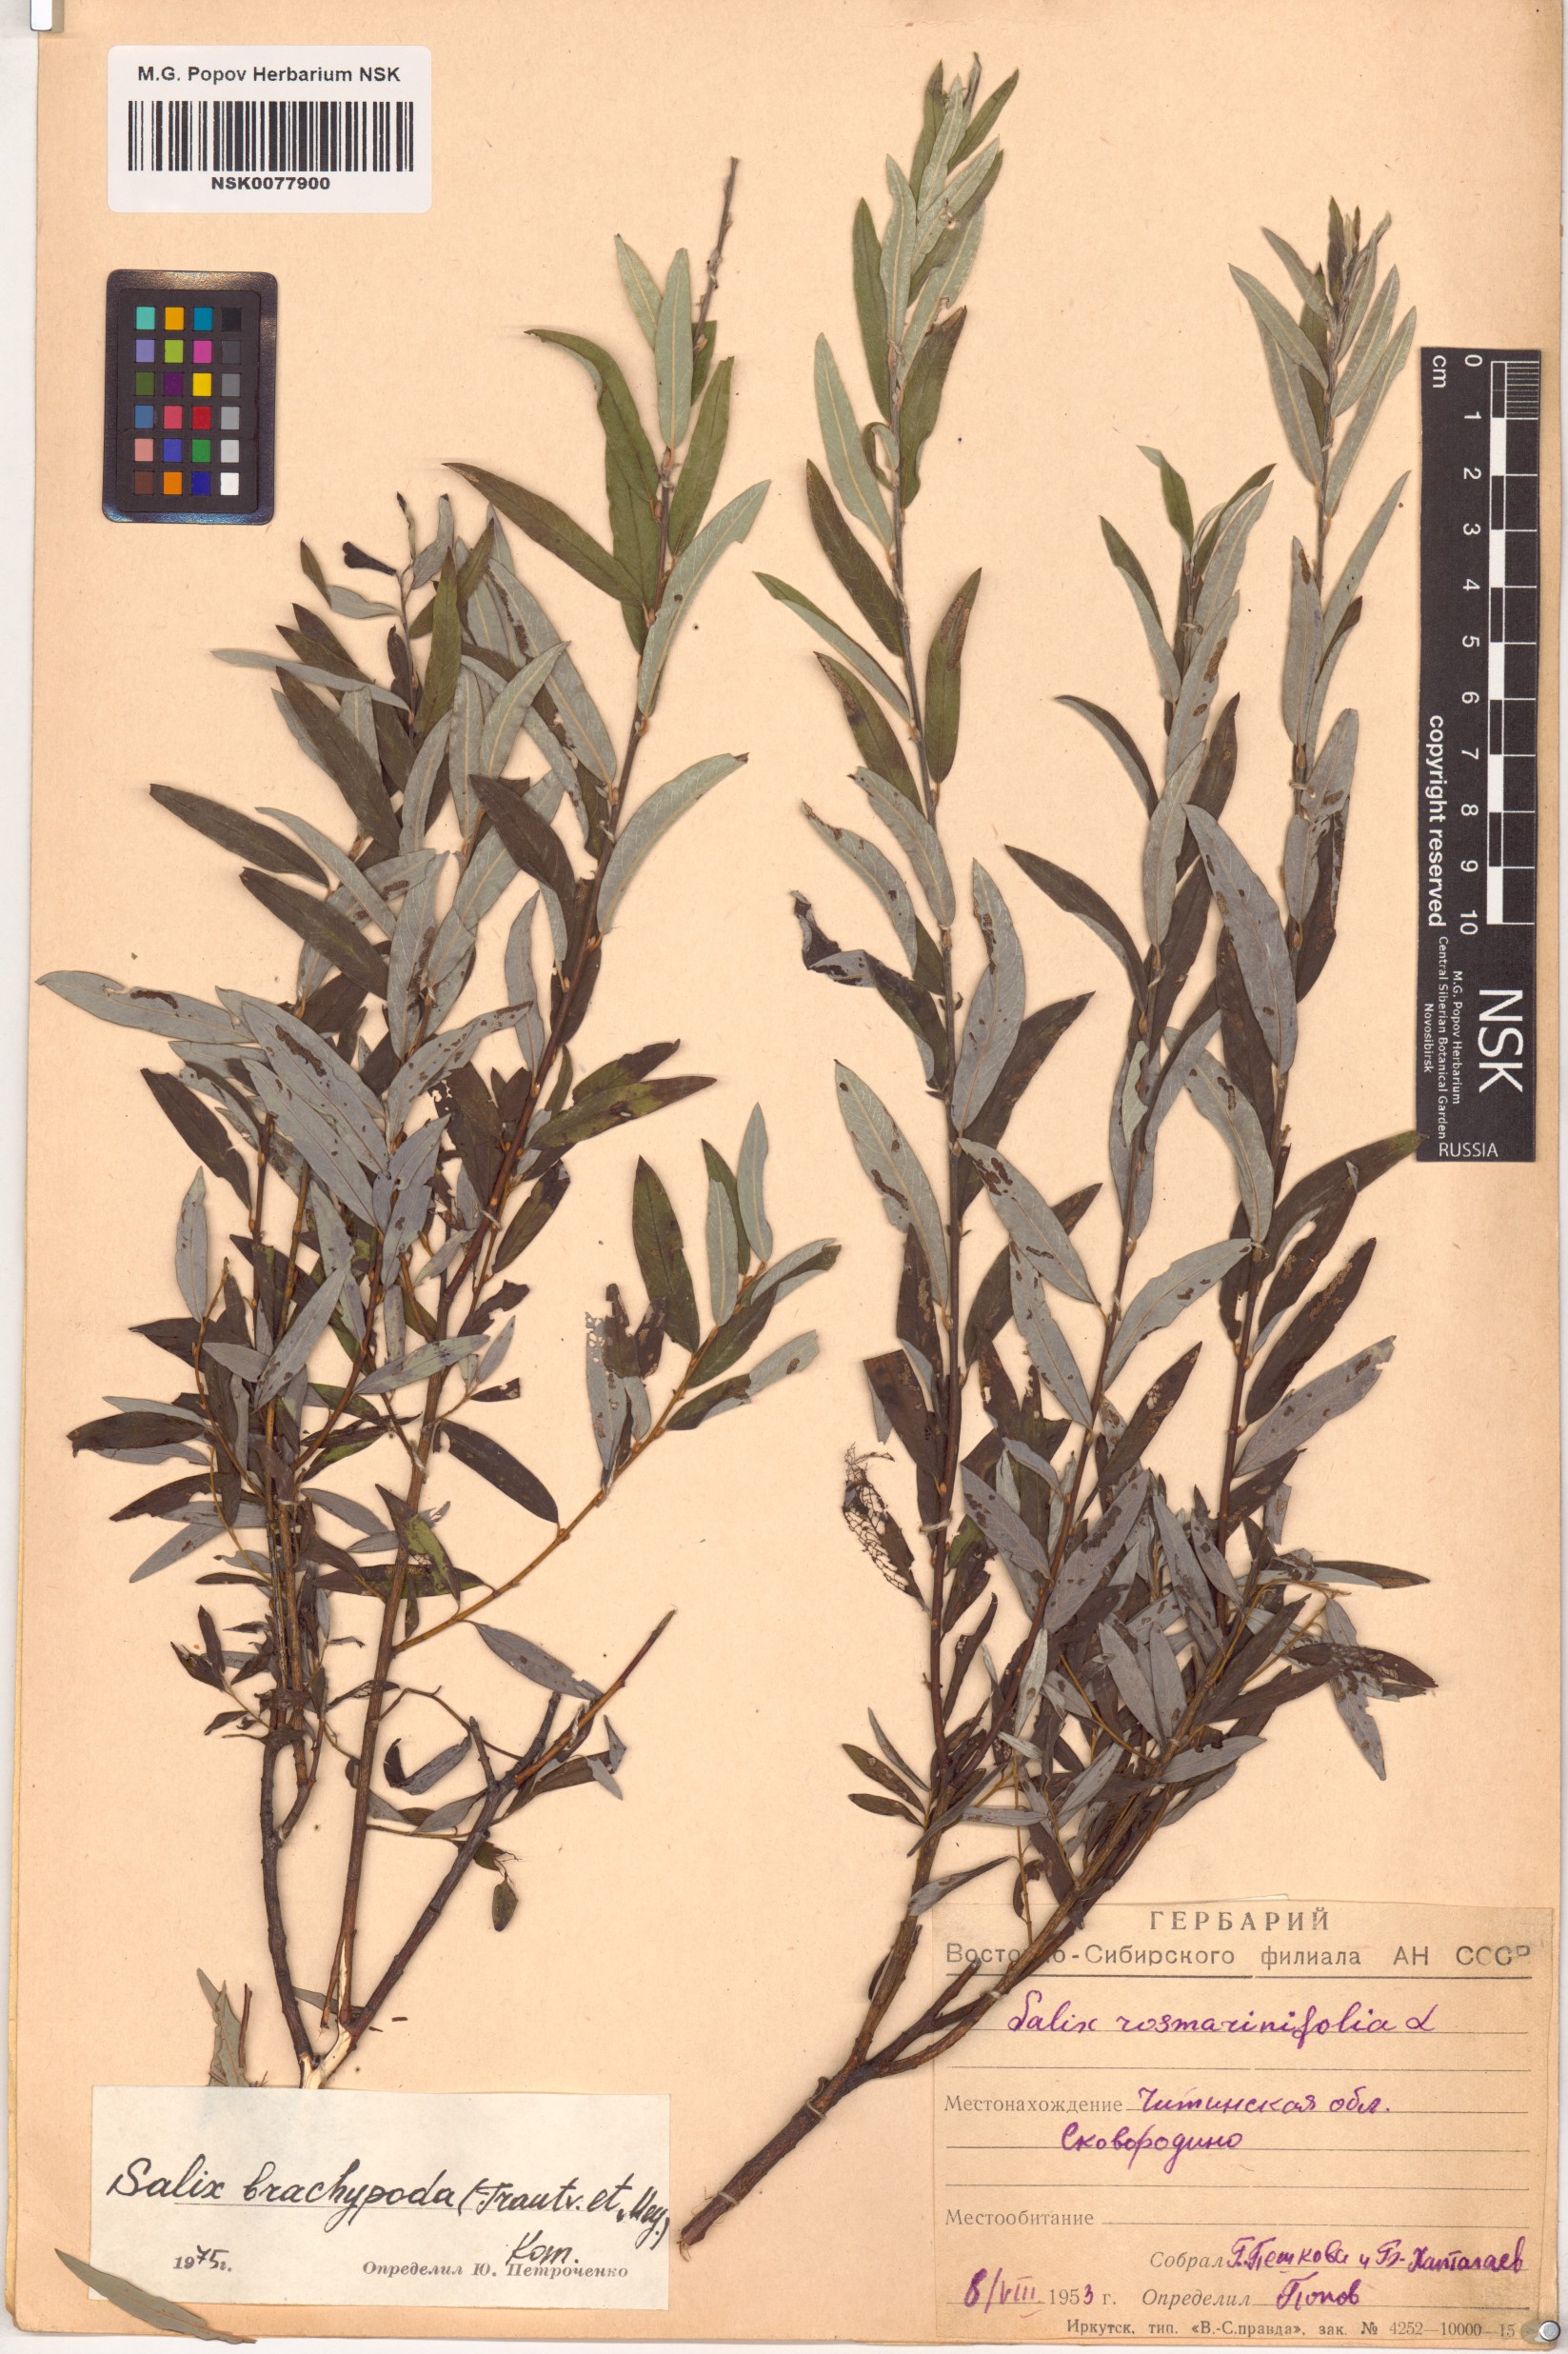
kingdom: Plantae
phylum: Tracheophyta
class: Magnoliopsida
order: Malpighiales
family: Salicaceae
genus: Salix
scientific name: Salix brachypoda
